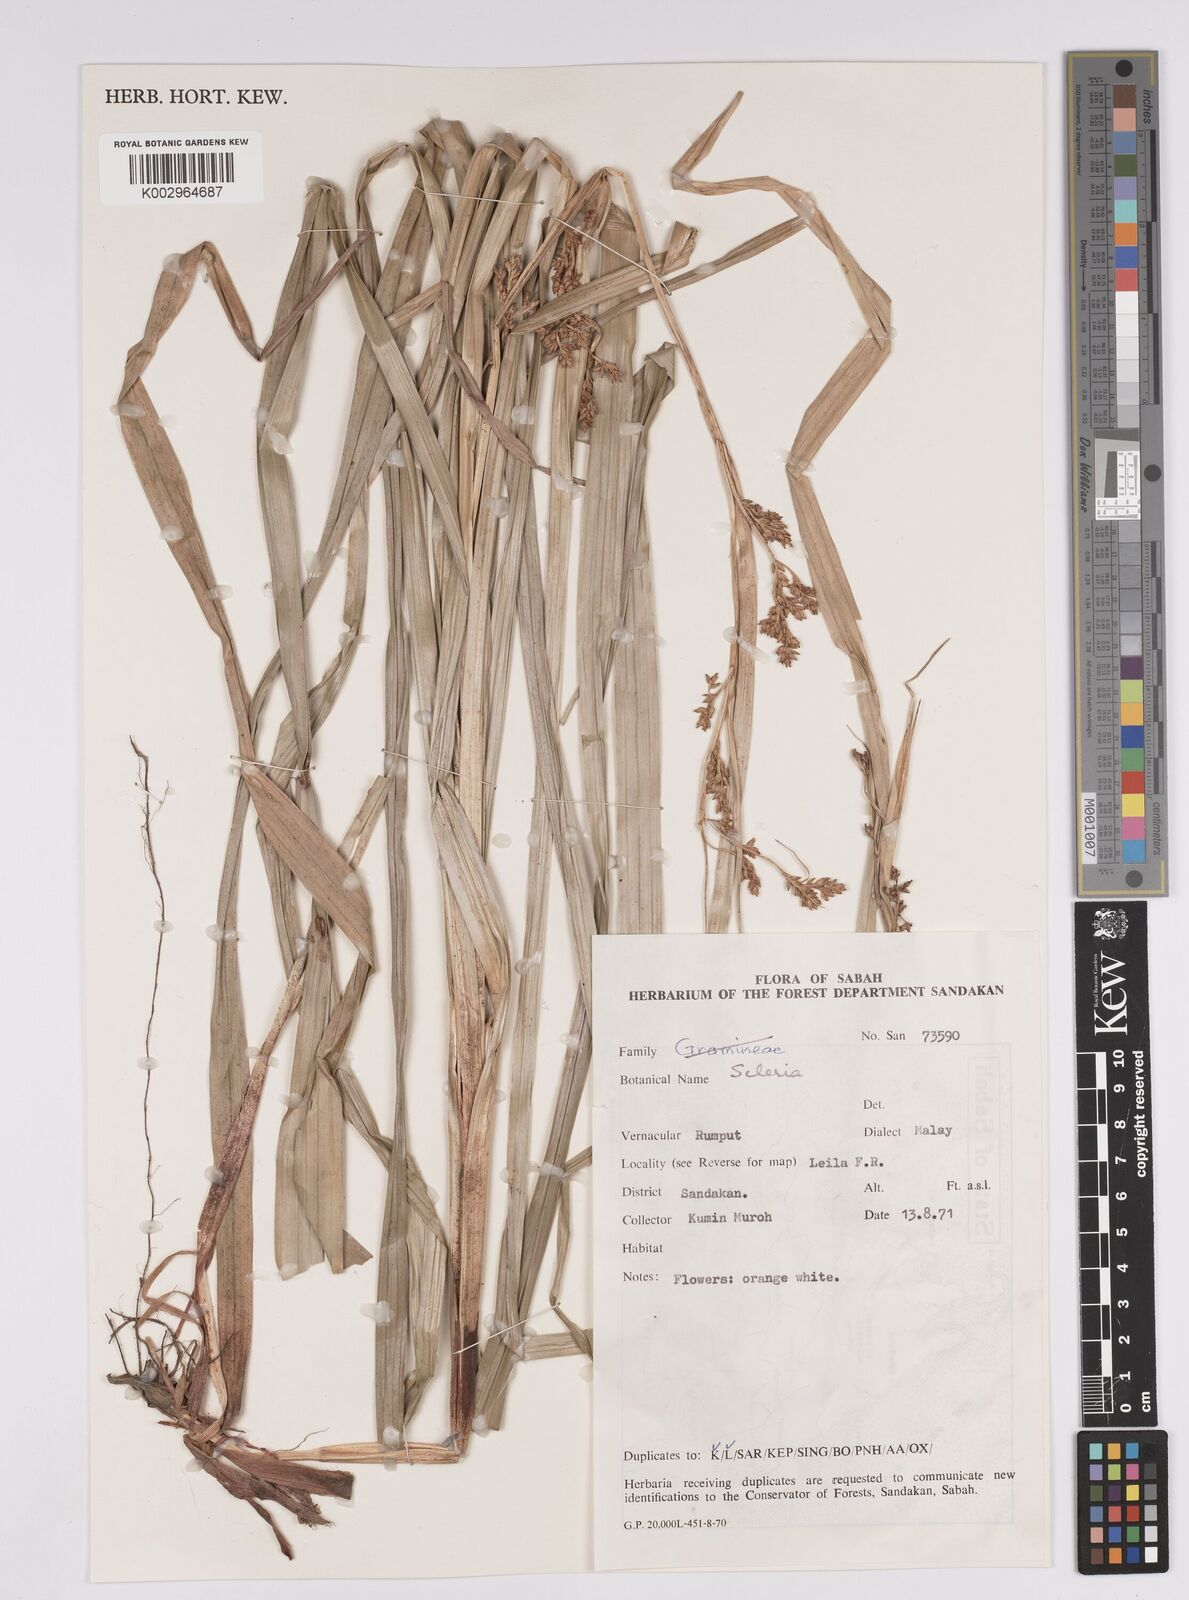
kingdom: Plantae
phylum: Tracheophyta
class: Liliopsida
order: Poales
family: Cyperaceae
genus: Scleria
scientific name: Scleria
